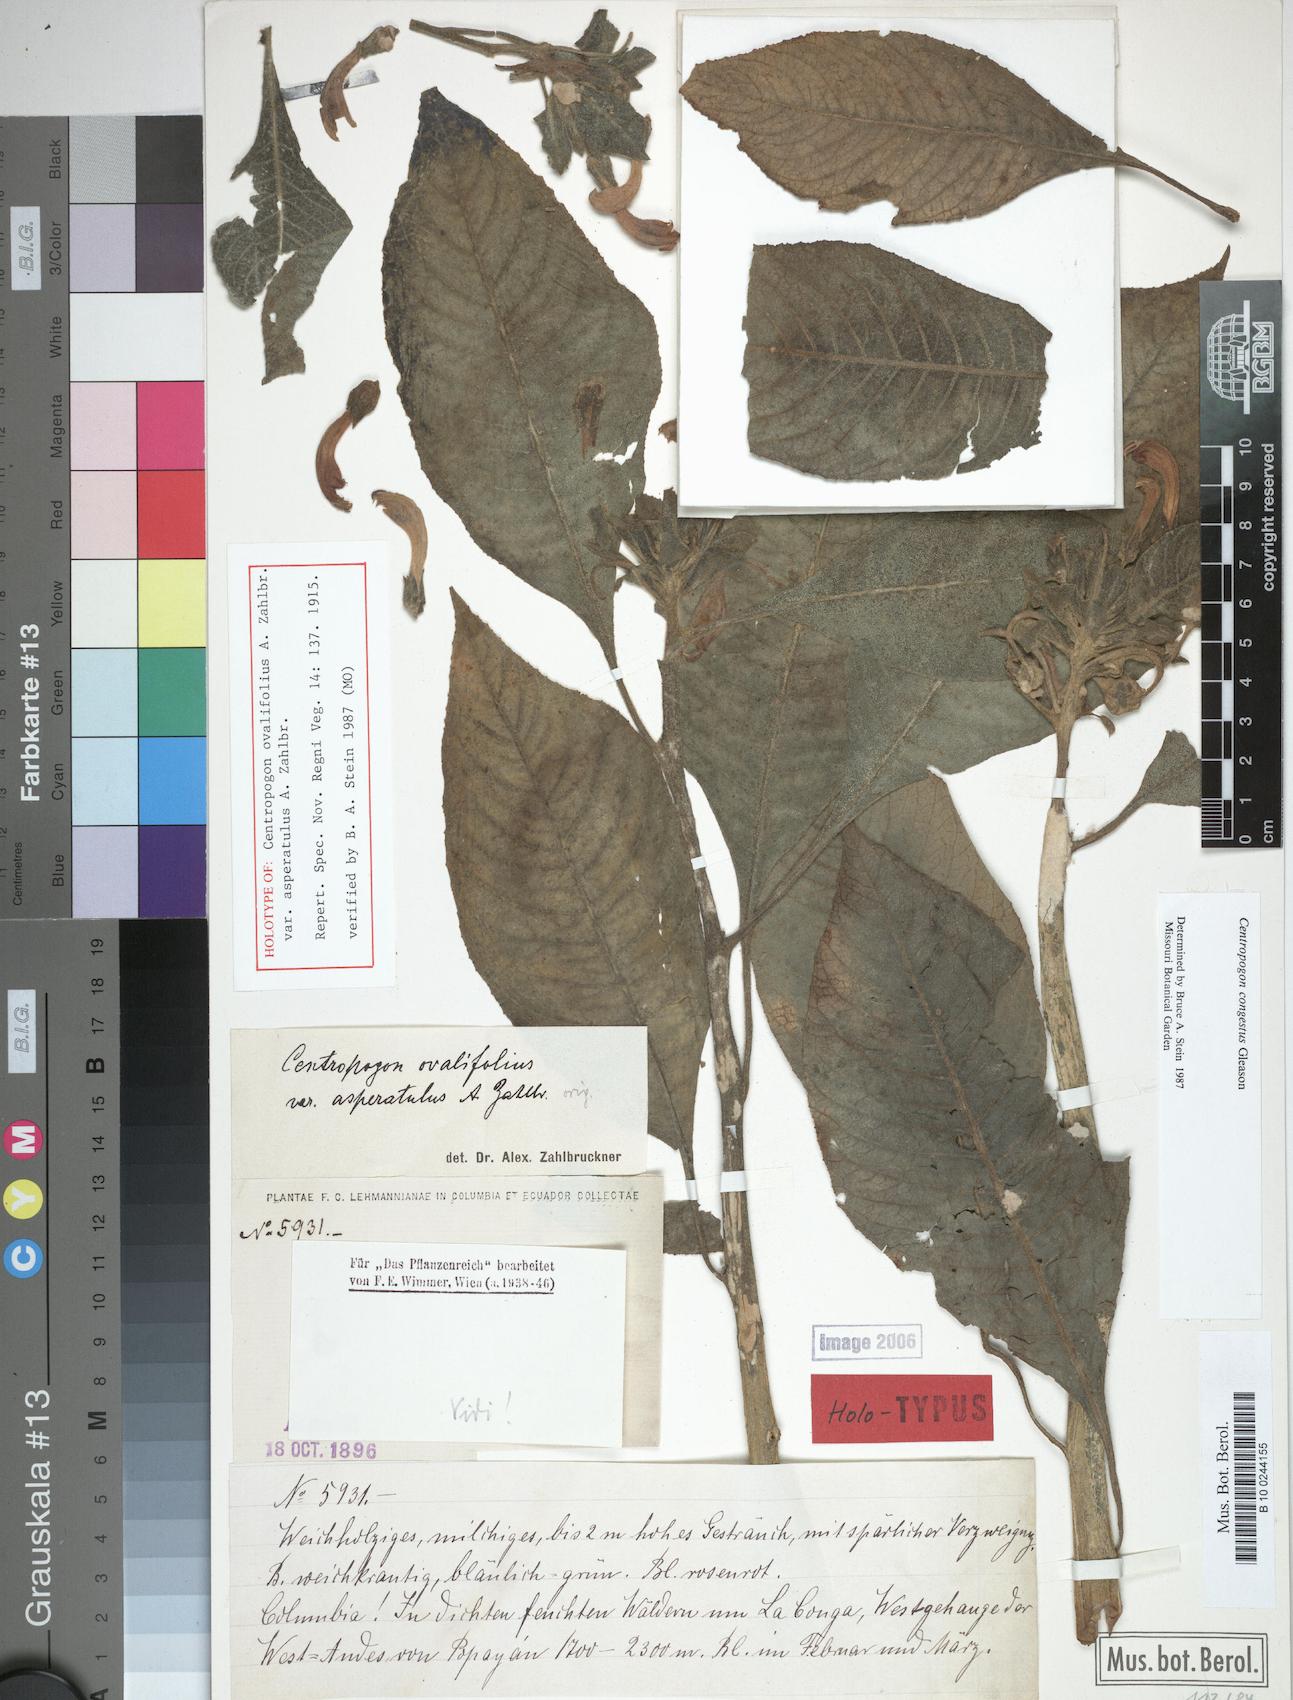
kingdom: Plantae
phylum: Tracheophyta
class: Magnoliopsida
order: Asterales
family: Campanulaceae
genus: Centropogon
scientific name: Centropogon congestus
